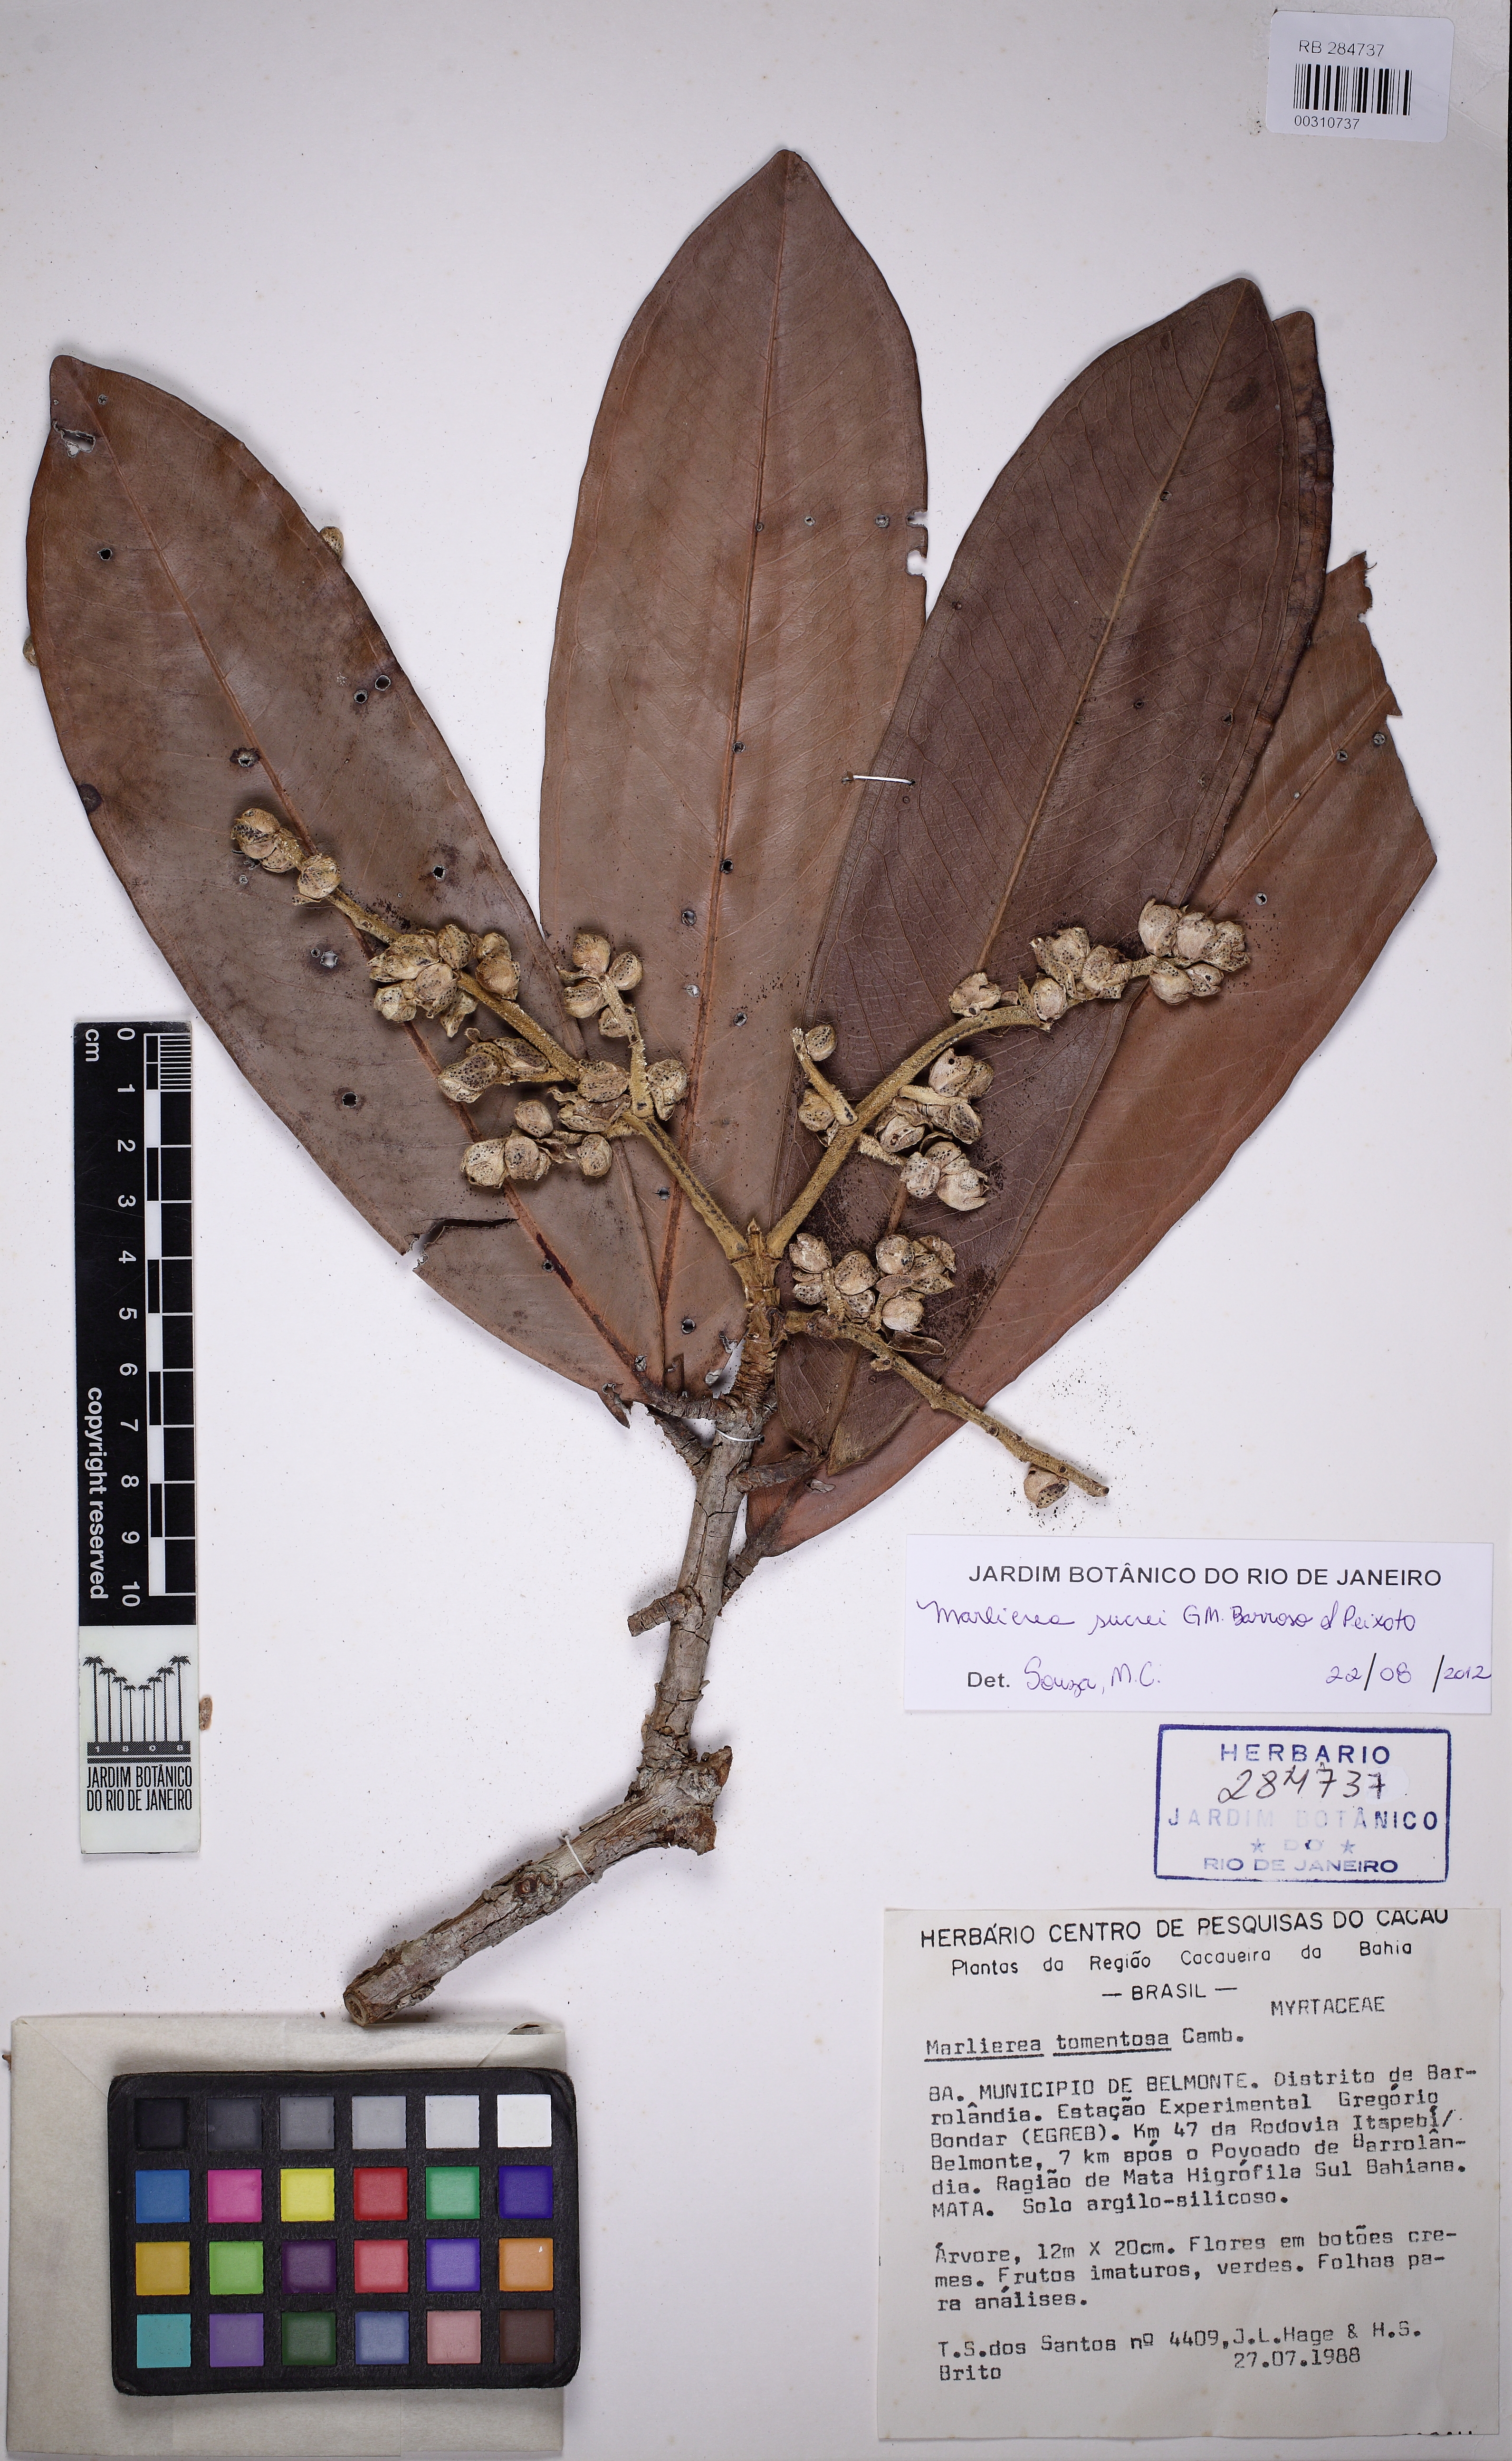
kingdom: Plantae
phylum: Tracheophyta
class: Magnoliopsida
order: Myrtales
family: Myrtaceae
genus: Myrcia
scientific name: Myrcia sucrei
